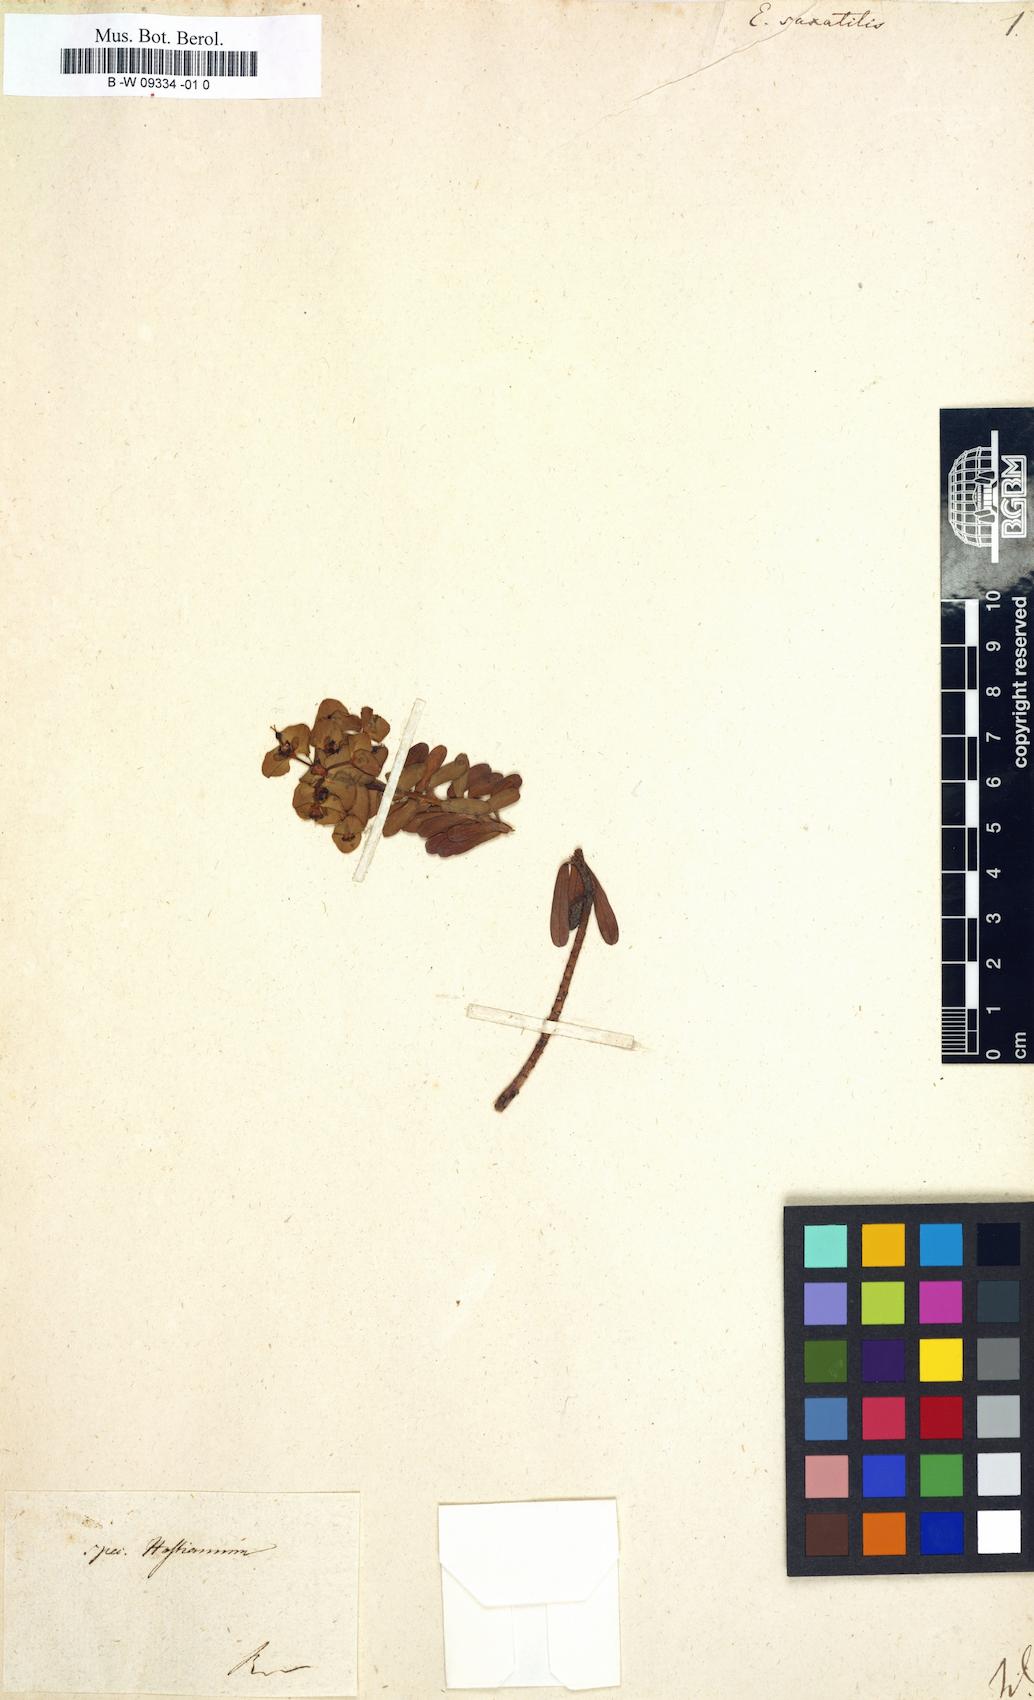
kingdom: Plantae
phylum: Tracheophyta
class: Magnoliopsida
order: Malpighiales
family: Euphorbiaceae
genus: Euphorbia
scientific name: Euphorbia saxatilis
